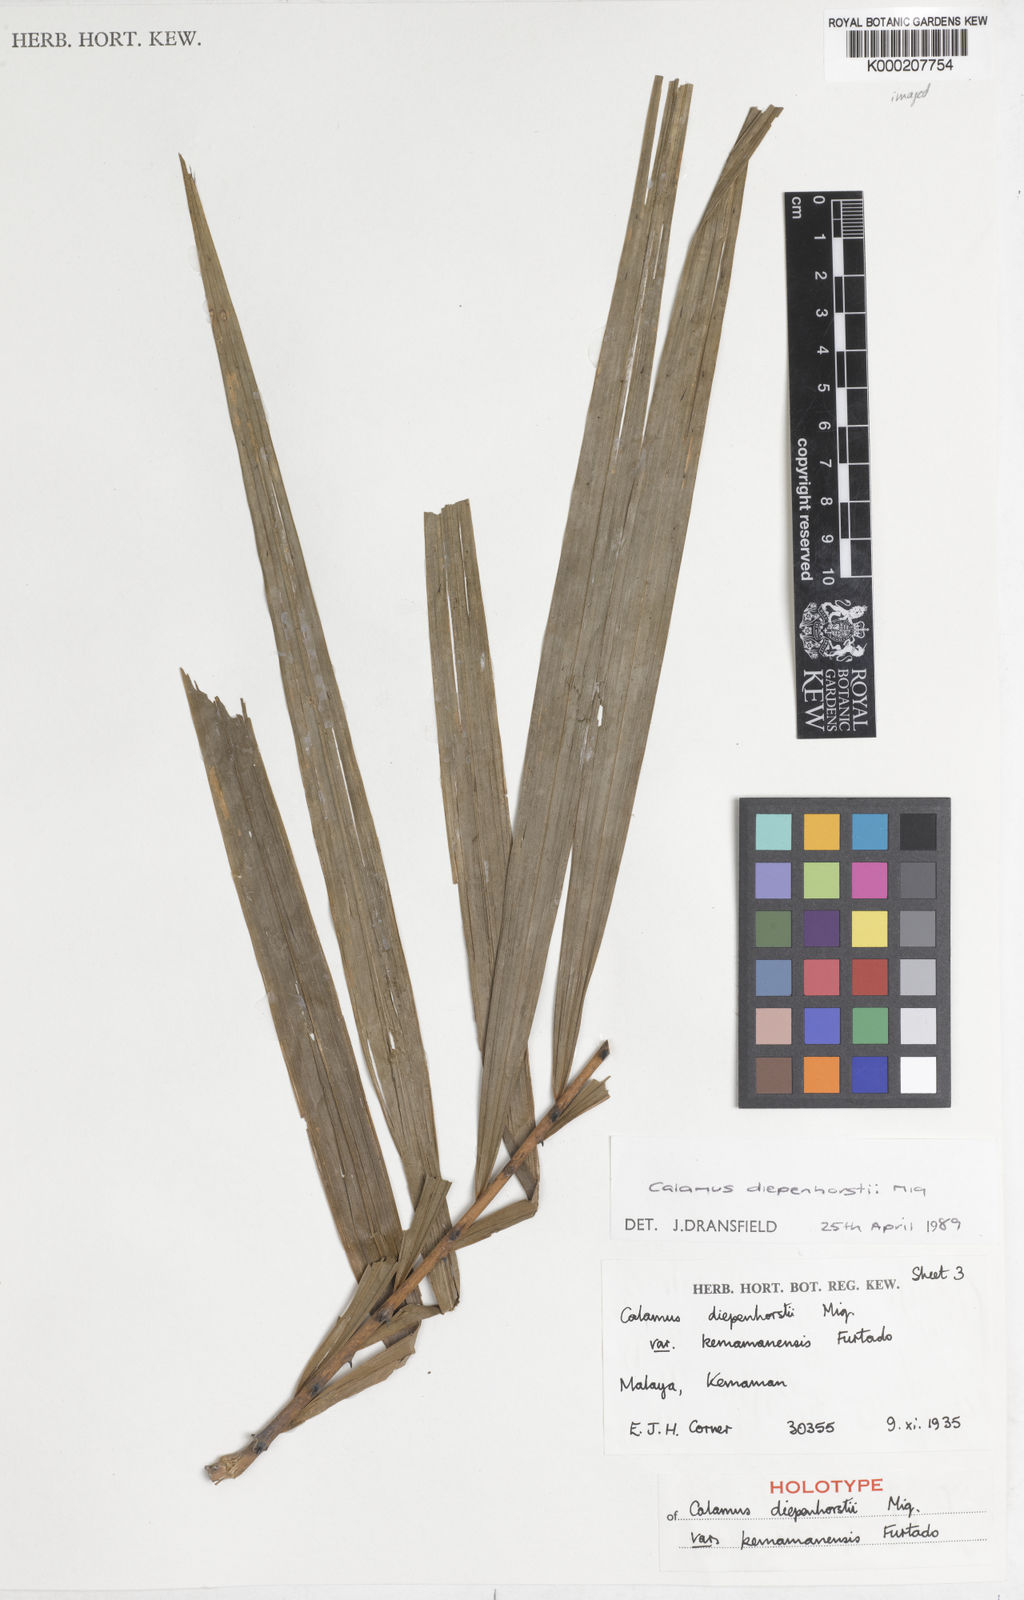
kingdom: Plantae
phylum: Tracheophyta
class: Liliopsida
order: Arecales
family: Arecaceae
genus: Calamus
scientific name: Calamus diepenhorstii
